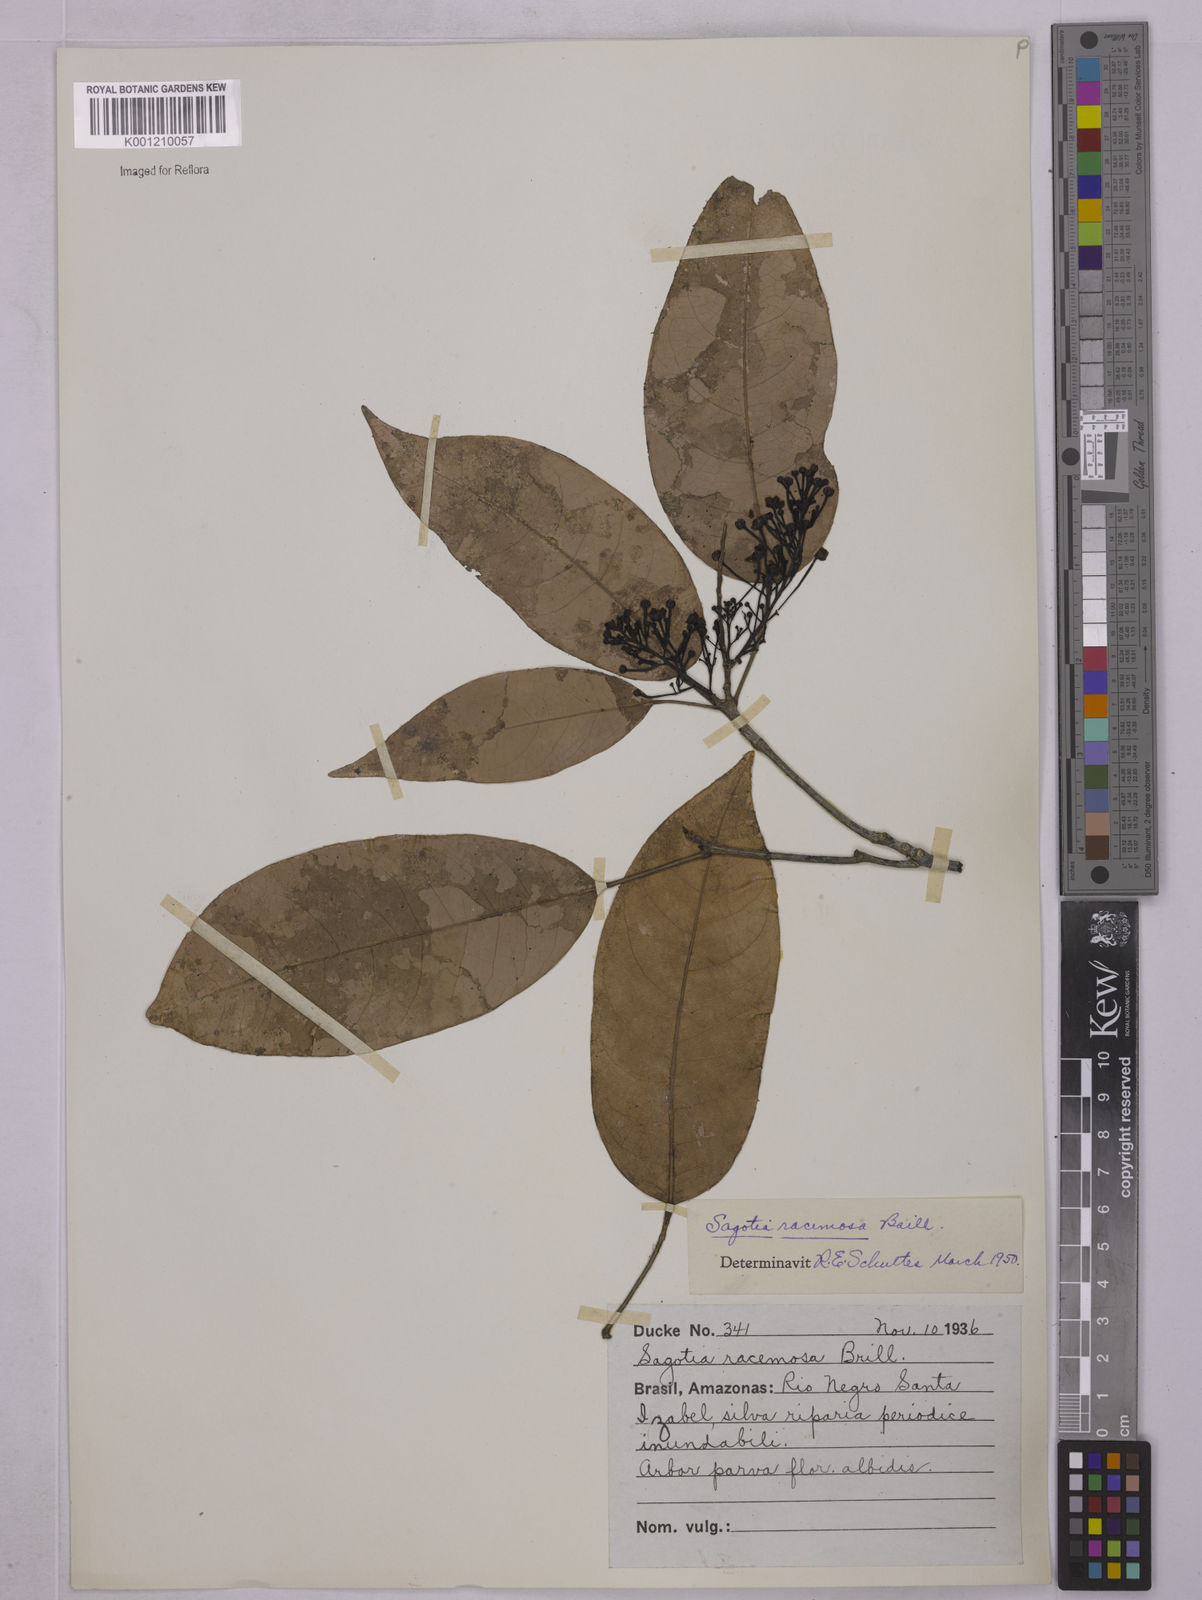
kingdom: Plantae
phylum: Tracheophyta
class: Magnoliopsida
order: Malpighiales
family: Euphorbiaceae
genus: Sagotia
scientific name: Sagotia racemosa
